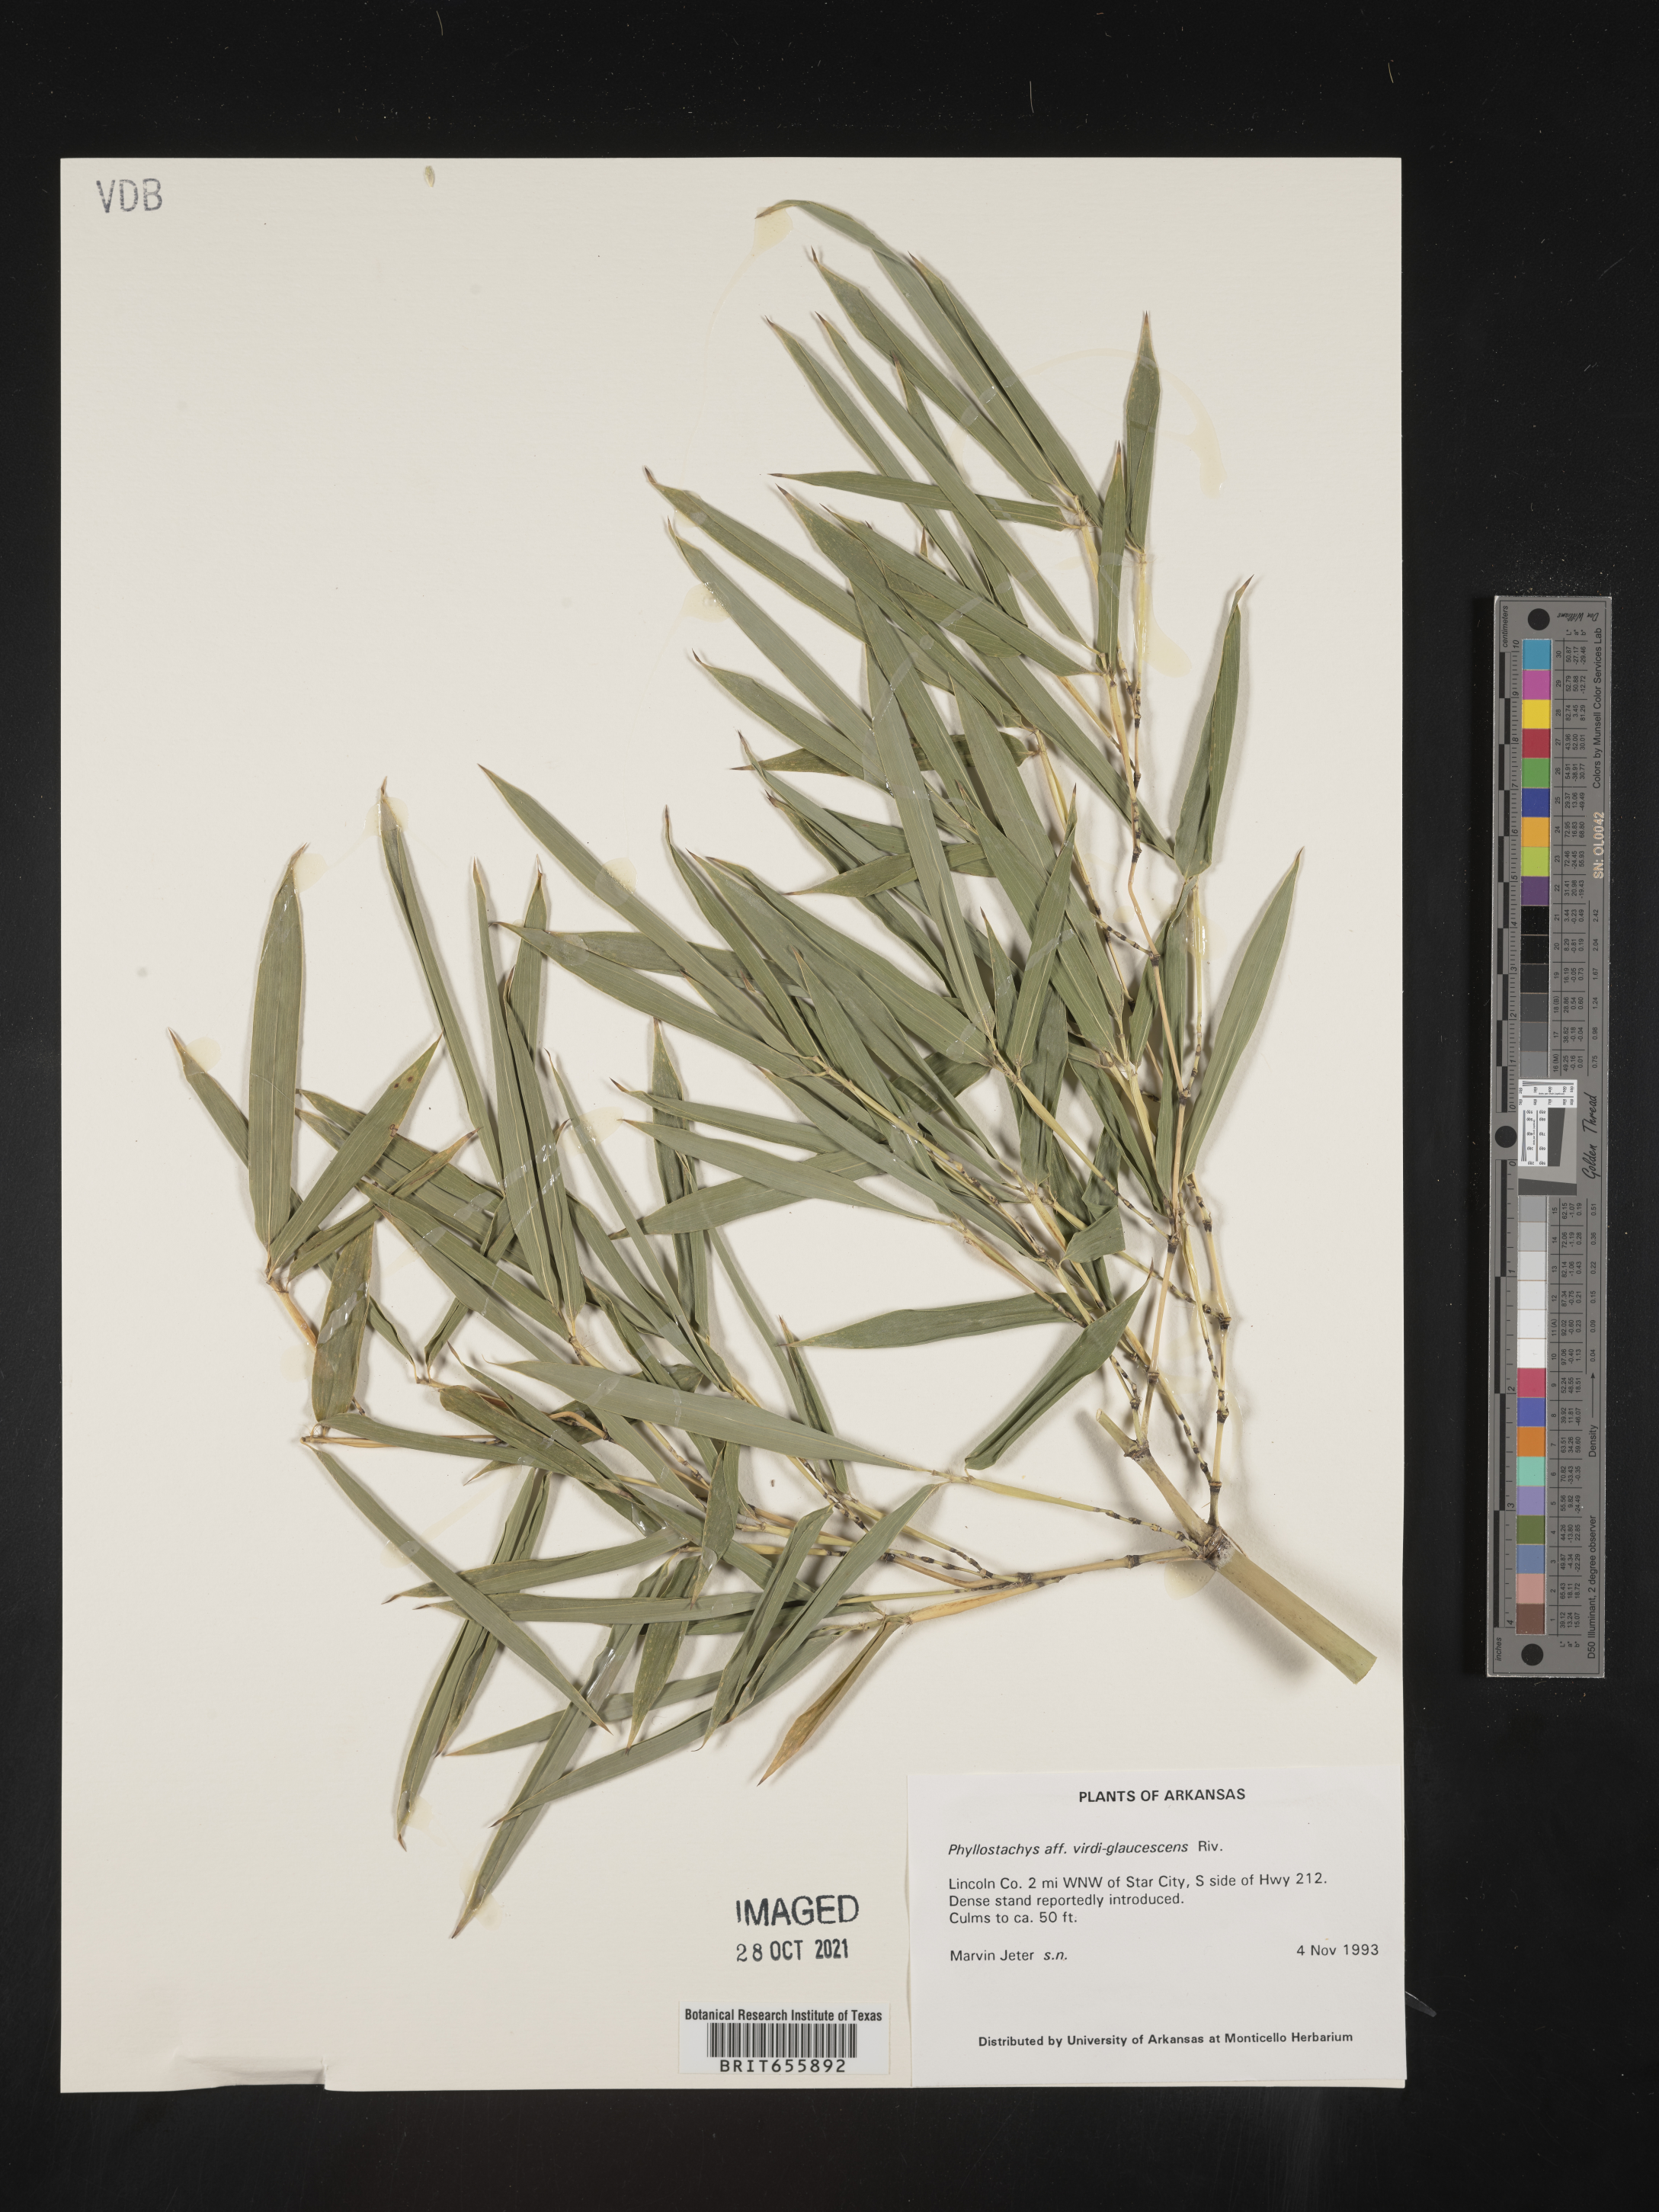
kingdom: Plantae
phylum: Tracheophyta
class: Liliopsida
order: Poales
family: Poaceae
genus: Phyllostachys
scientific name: Phyllostachys
